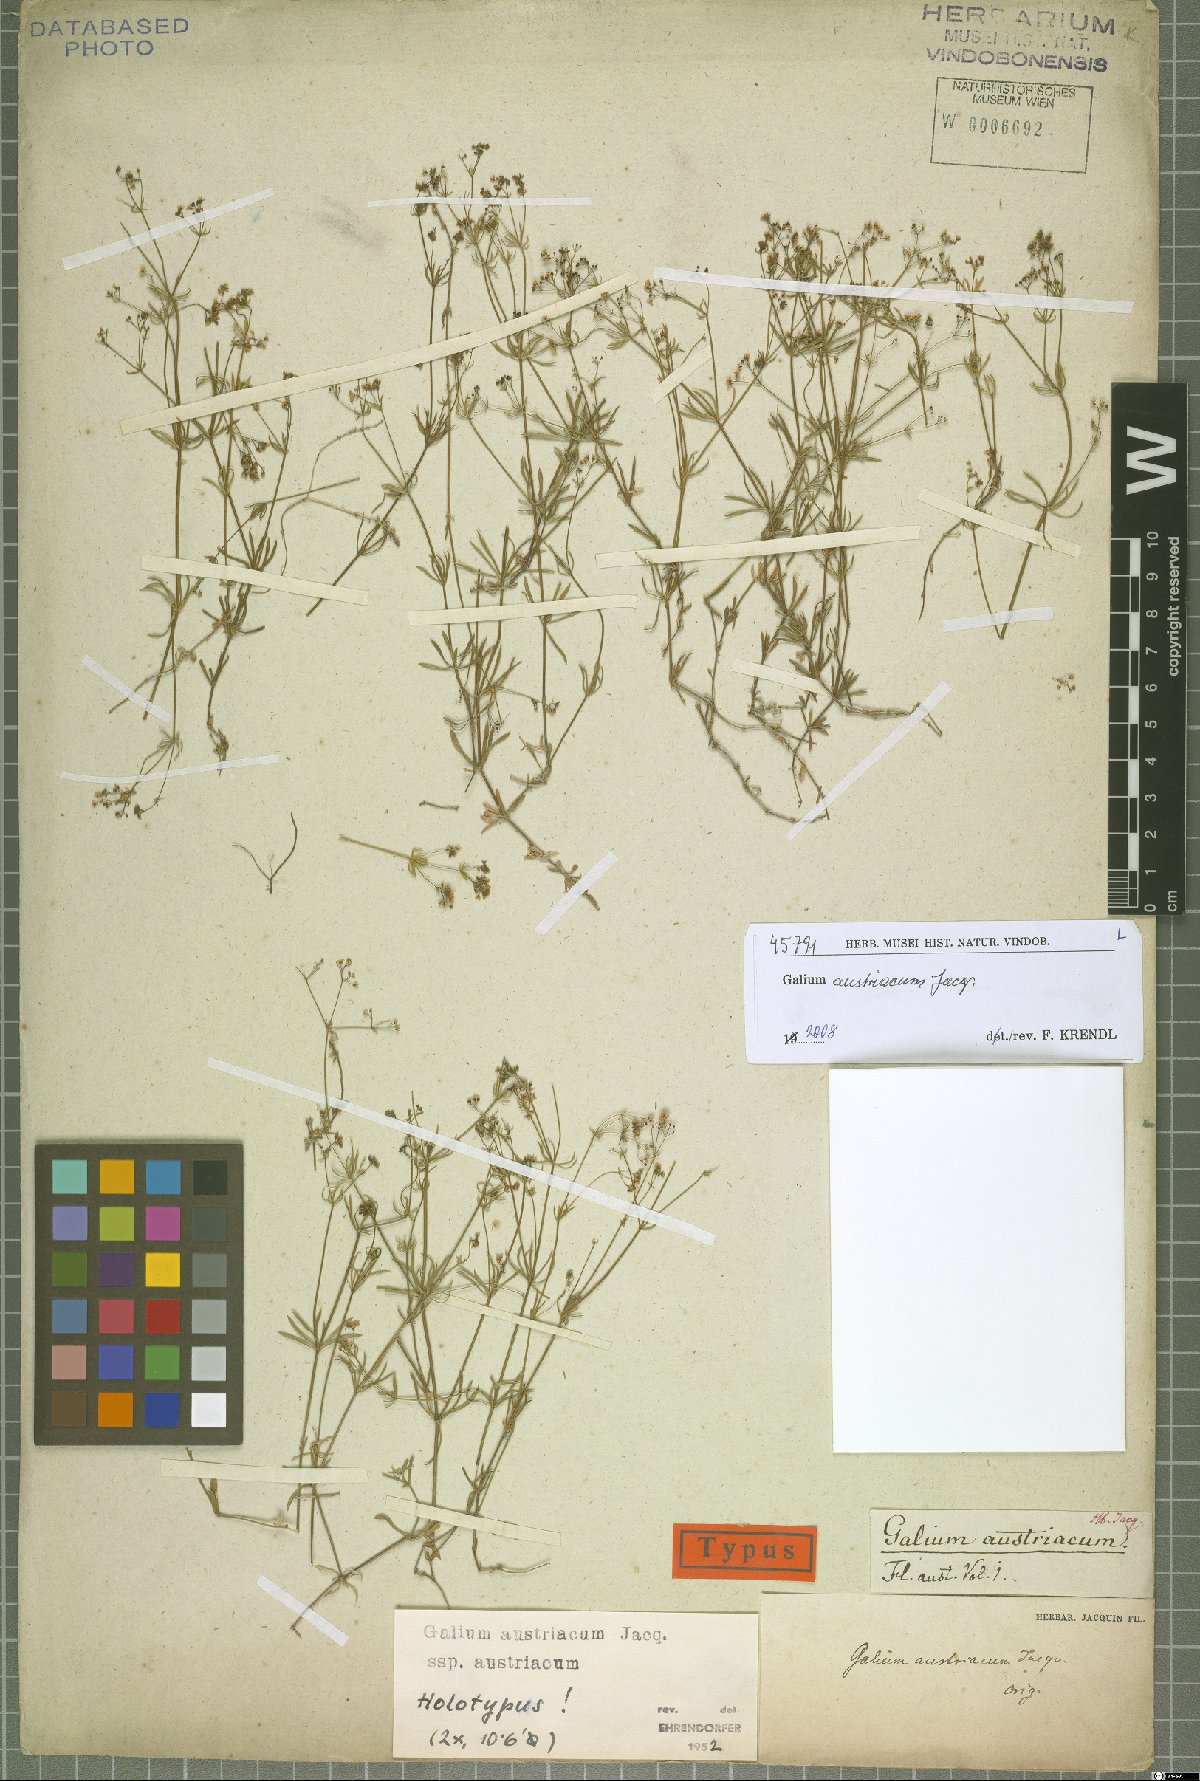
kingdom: Plantae
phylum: Tracheophyta
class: Magnoliopsida
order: Gentianales
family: Rubiaceae
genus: Galium
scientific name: Galium austriacum
